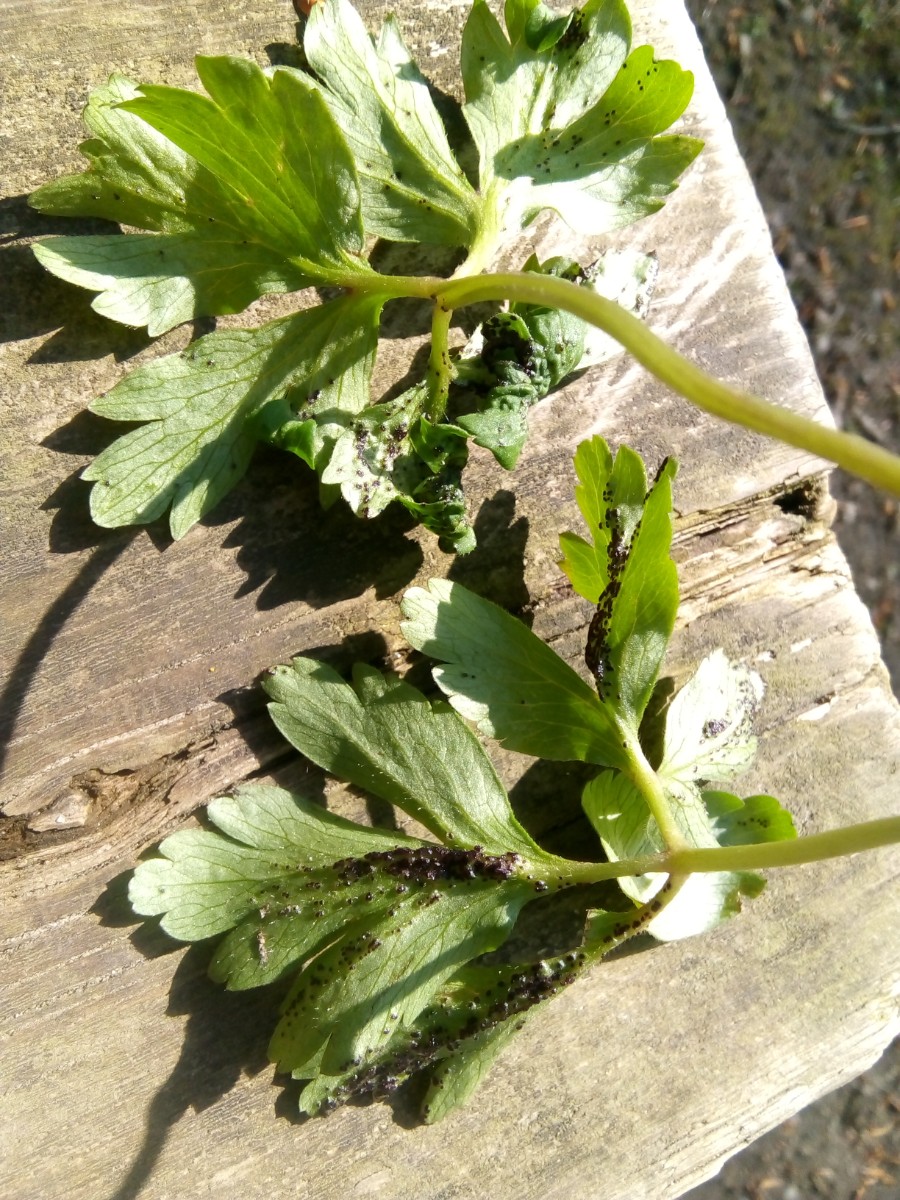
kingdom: Fungi
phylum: Basidiomycota
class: Pucciniomycetes
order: Pucciniales
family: Tranzscheliaceae
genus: Tranzschelia
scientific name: Tranzschelia anemones
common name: anemone-knæksporerust
